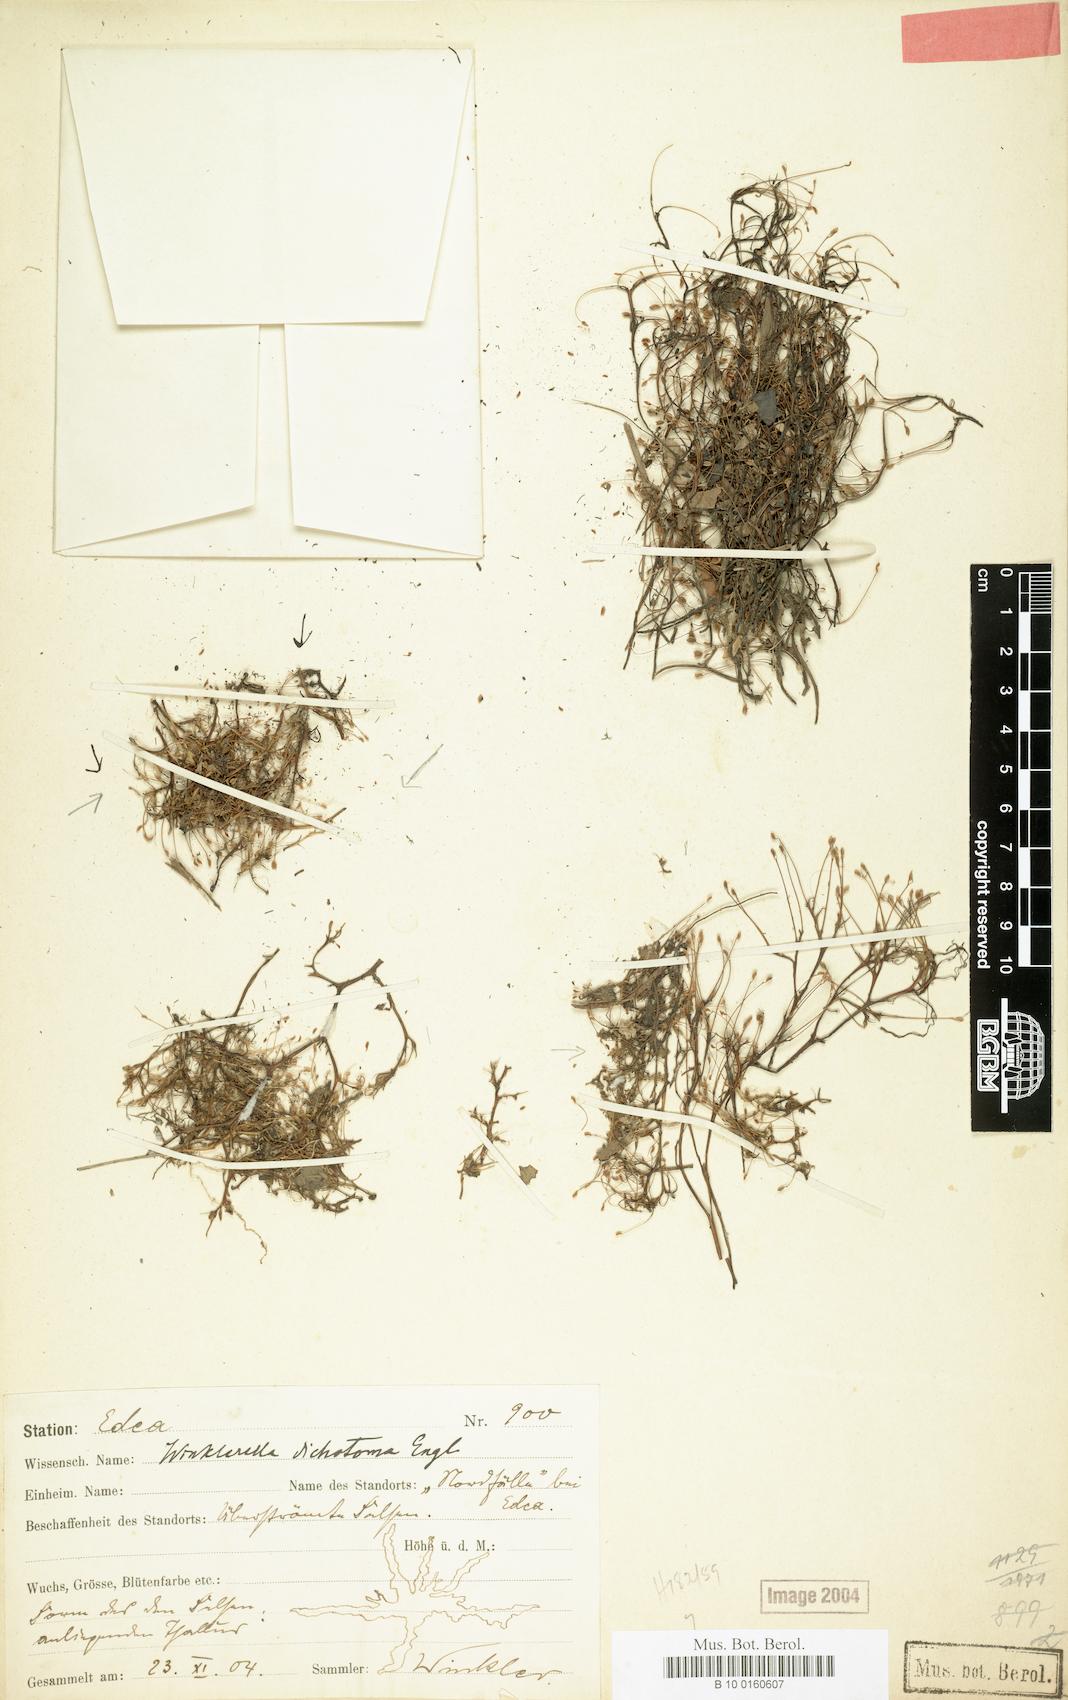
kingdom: Plantae
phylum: Tracheophyta
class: Magnoliopsida
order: Malpighiales
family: Podostemaceae
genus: Winklerella
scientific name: Winklerella dichotoma
